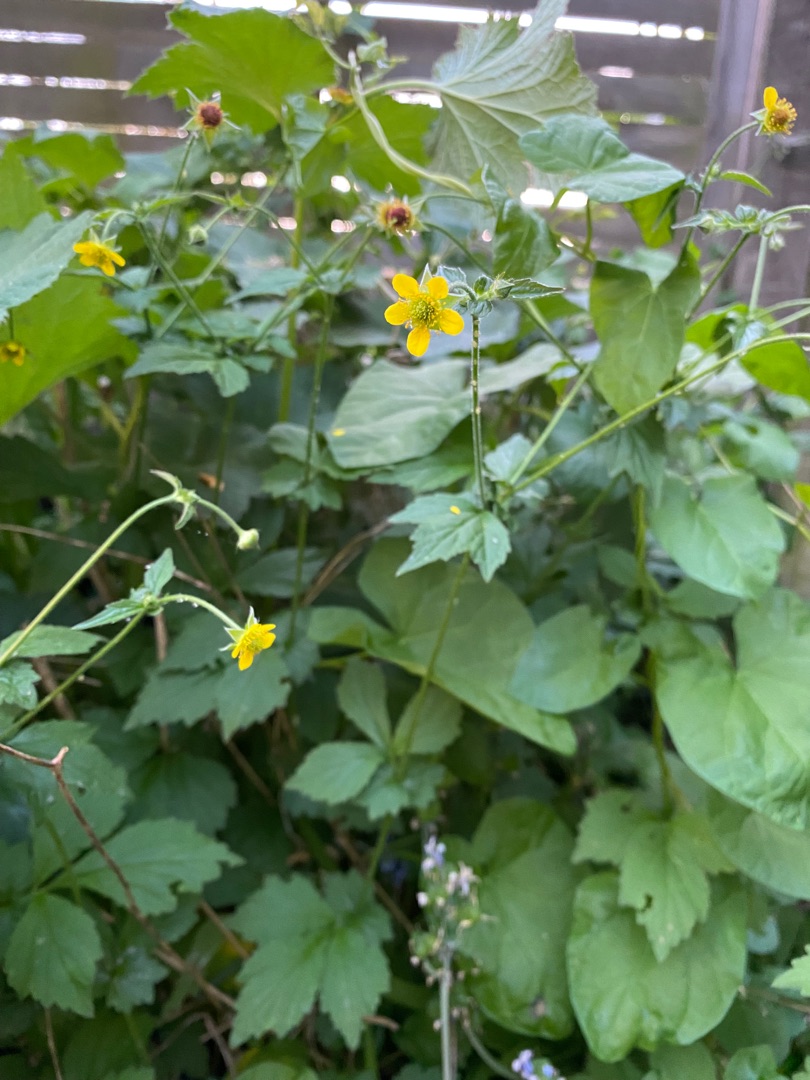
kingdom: Plantae
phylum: Tracheophyta
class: Magnoliopsida
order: Rosales
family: Rosaceae
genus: Geum
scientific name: Geum urbanum
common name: Feber-nellikerod
